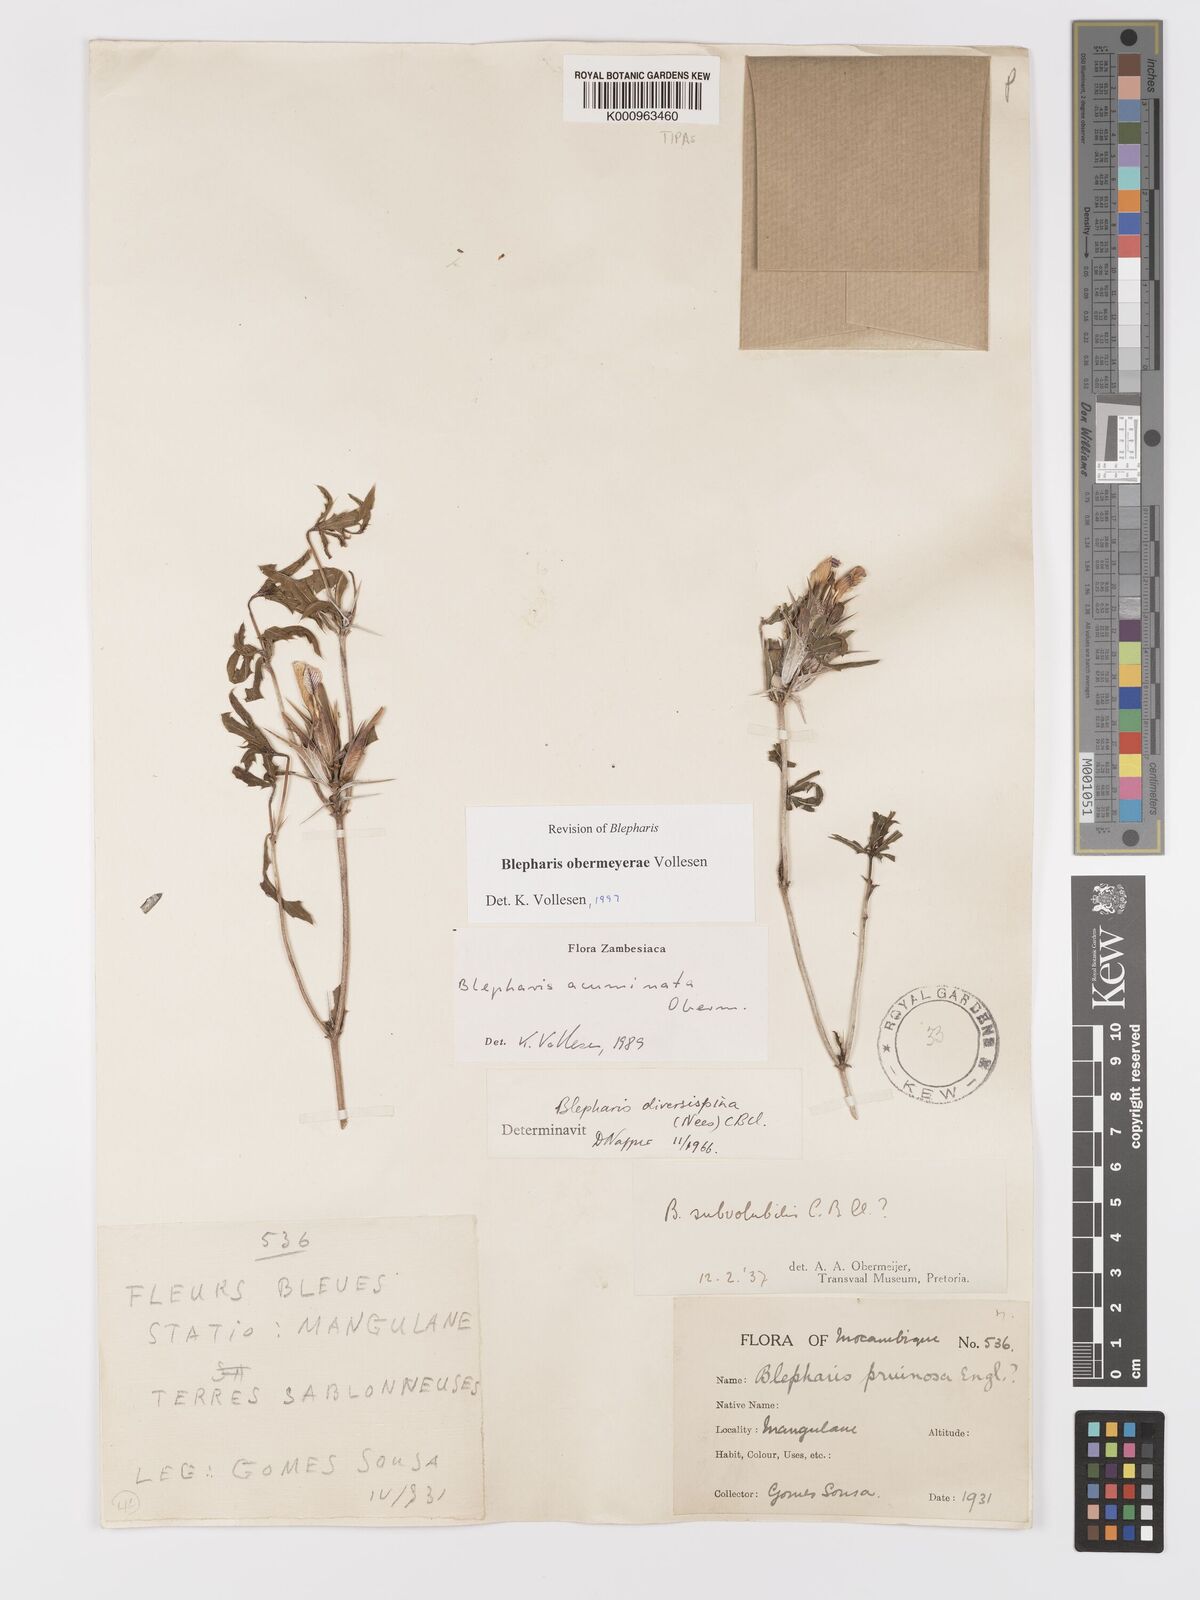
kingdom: Plantae
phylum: Tracheophyta
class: Magnoliopsida
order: Lamiales
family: Acanthaceae
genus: Blepharis
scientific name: Blepharis obermeyerae
